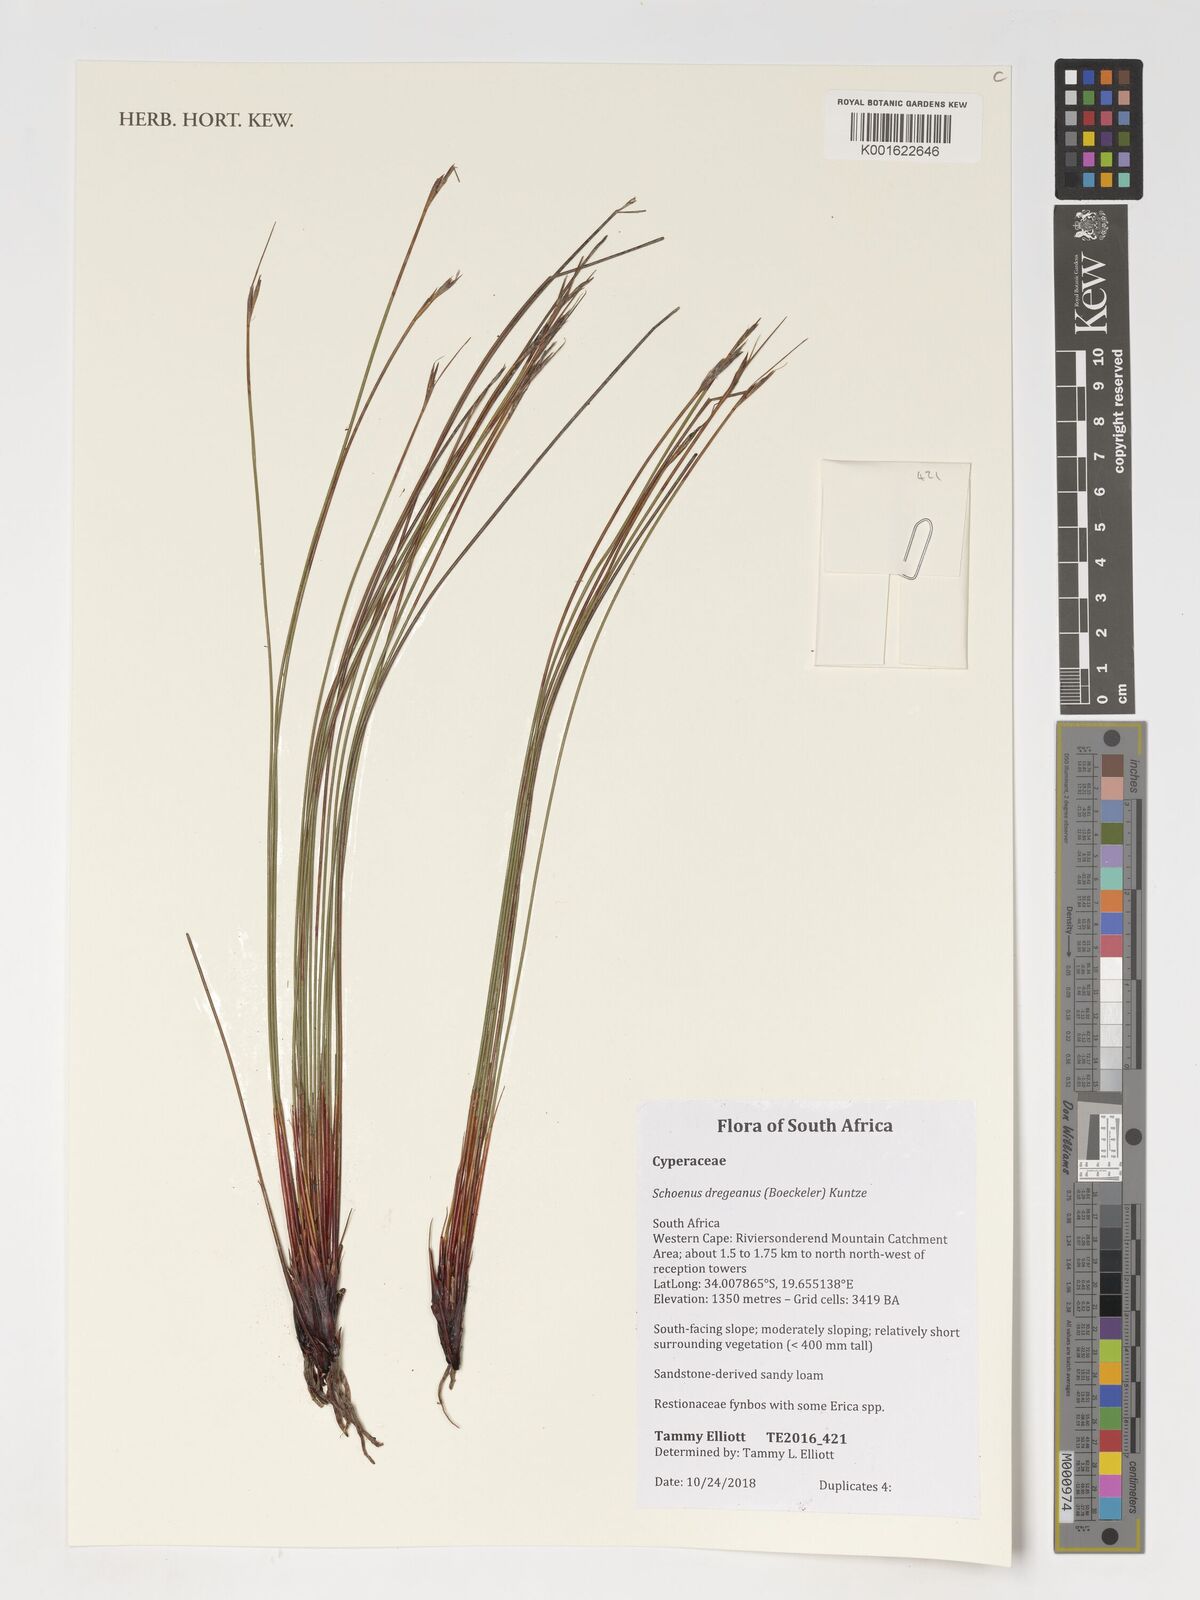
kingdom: Plantae
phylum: Tracheophyta
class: Liliopsida
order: Poales
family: Cyperaceae
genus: Schoenus
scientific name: Schoenus dregeanus
